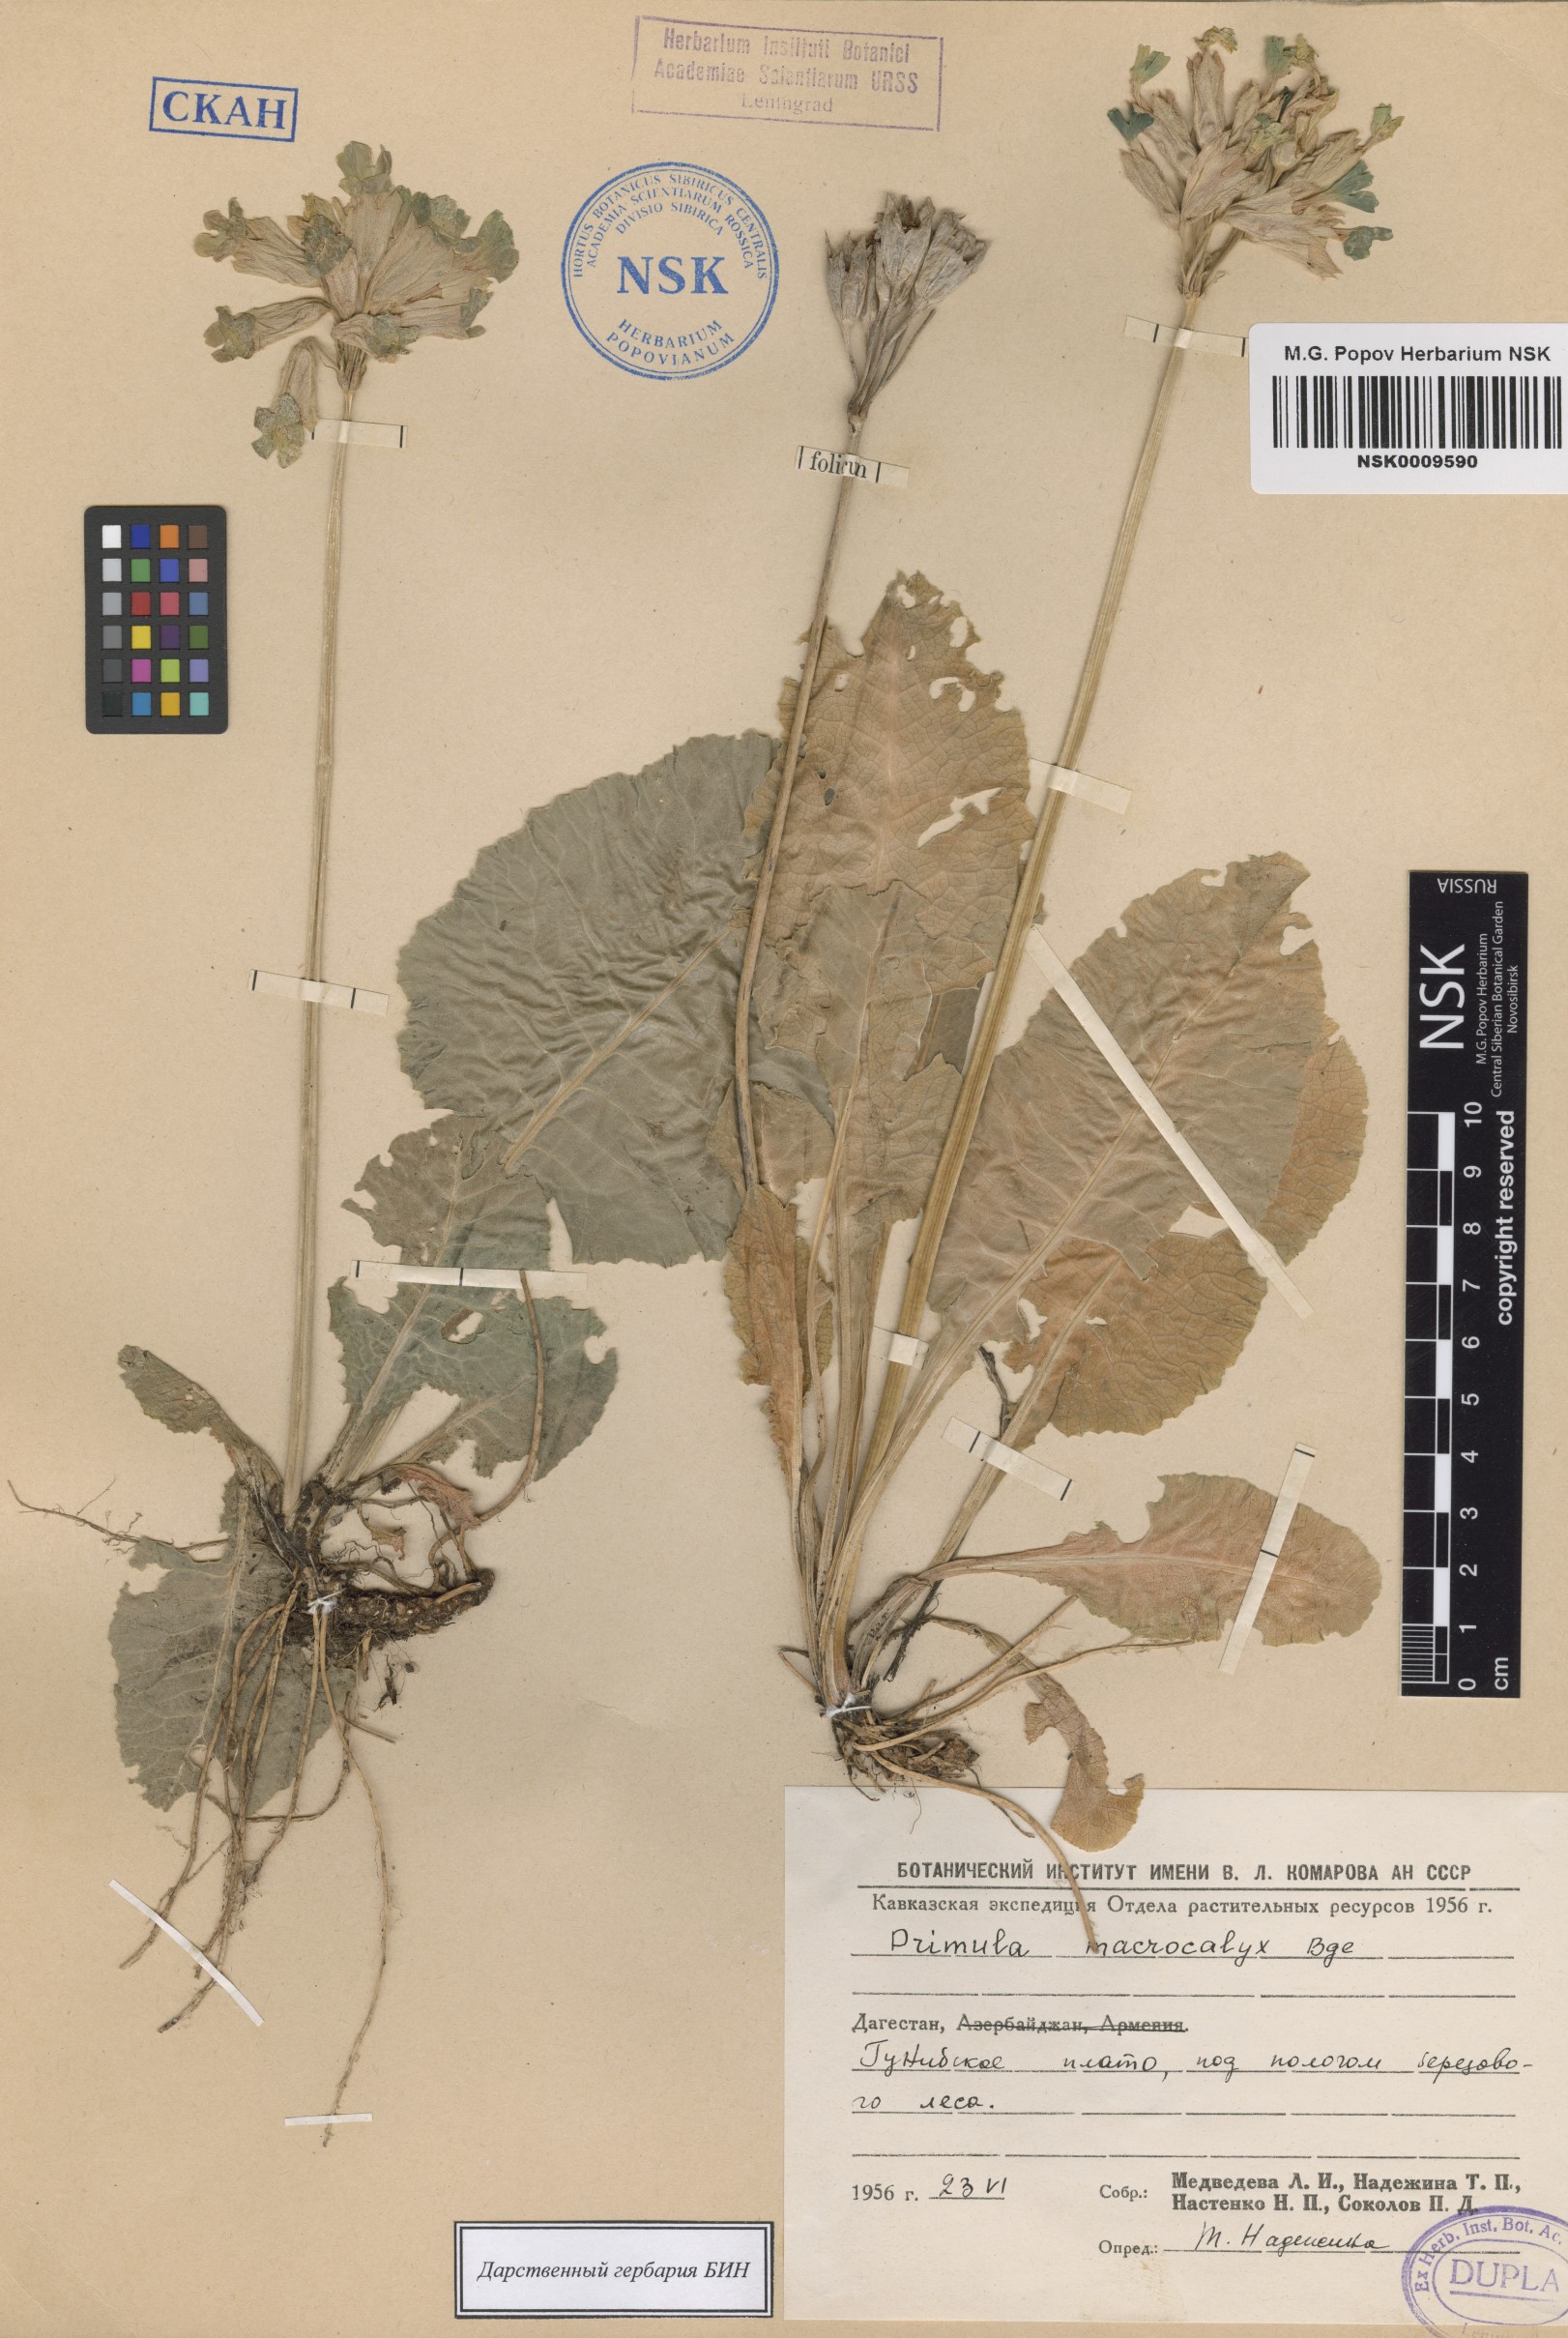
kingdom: Plantae
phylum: Tracheophyta
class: Magnoliopsida
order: Ericales
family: Primulaceae
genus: Primula
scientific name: Primula veris
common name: Cowslip
